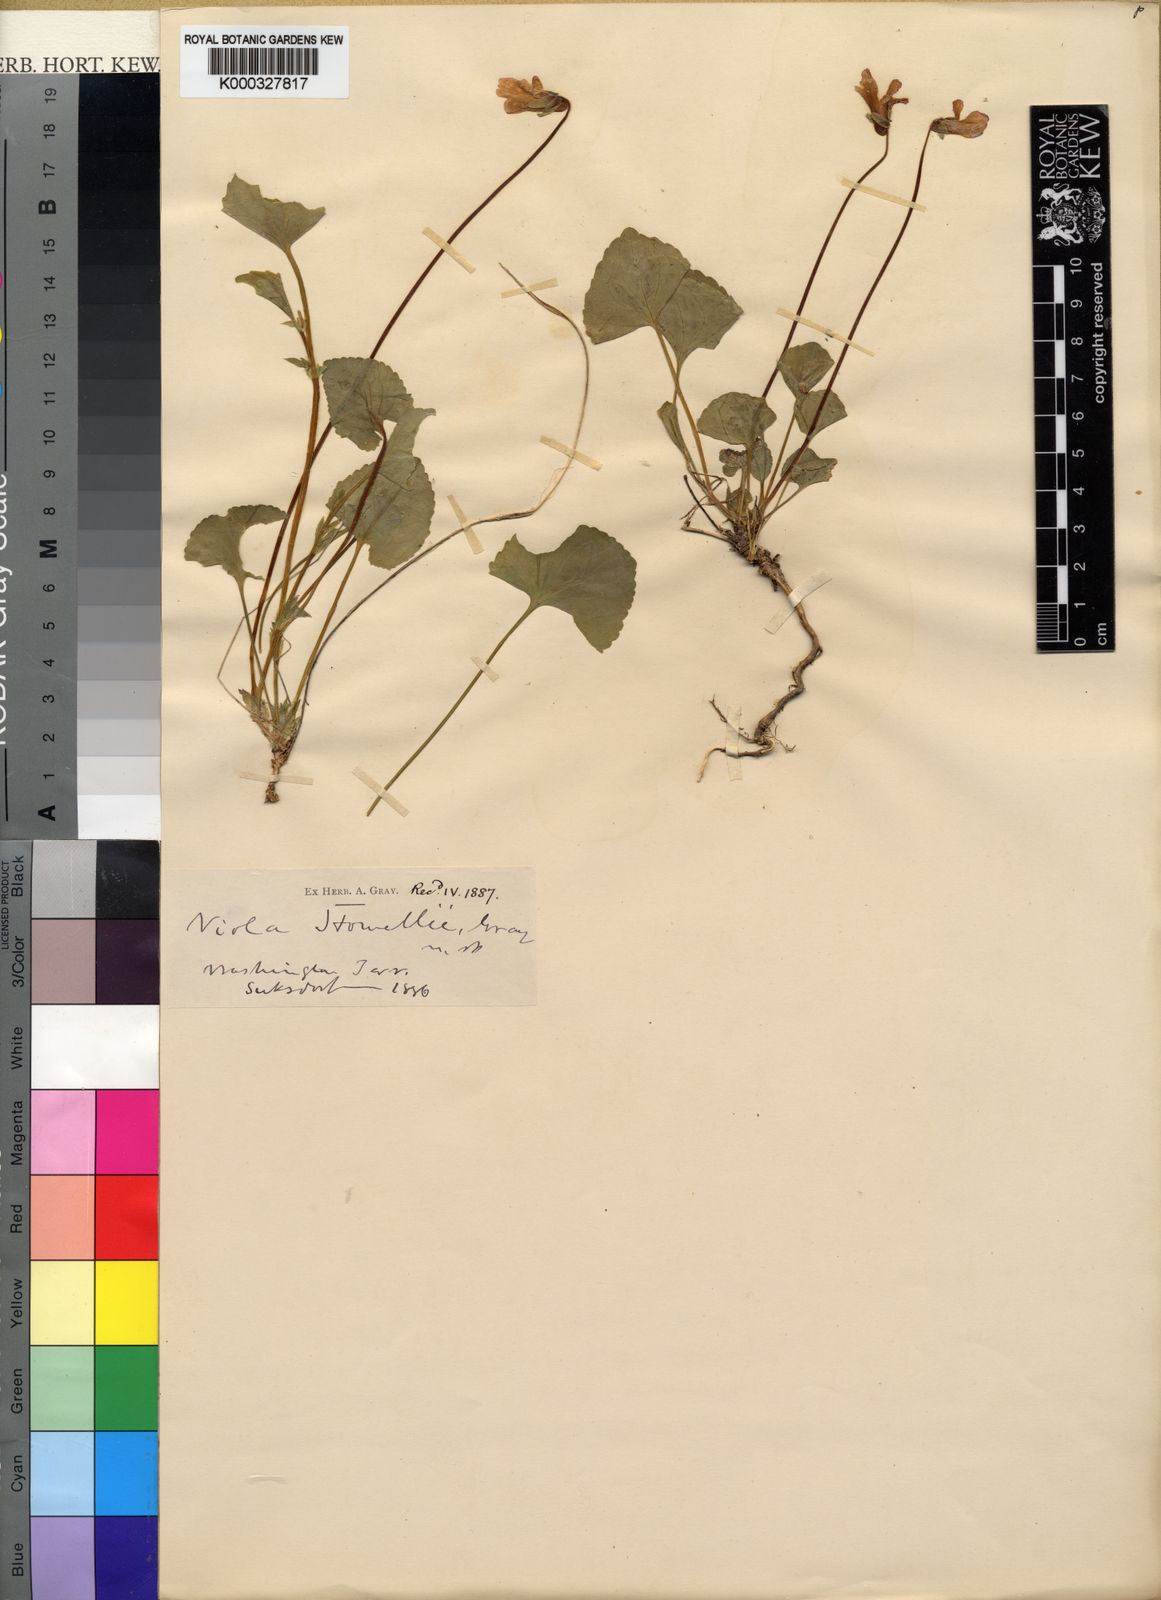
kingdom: Plantae
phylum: Tracheophyta
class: Magnoliopsida
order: Malpighiales
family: Violaceae
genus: Viola
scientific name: Viola howellii
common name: Howell's violet
